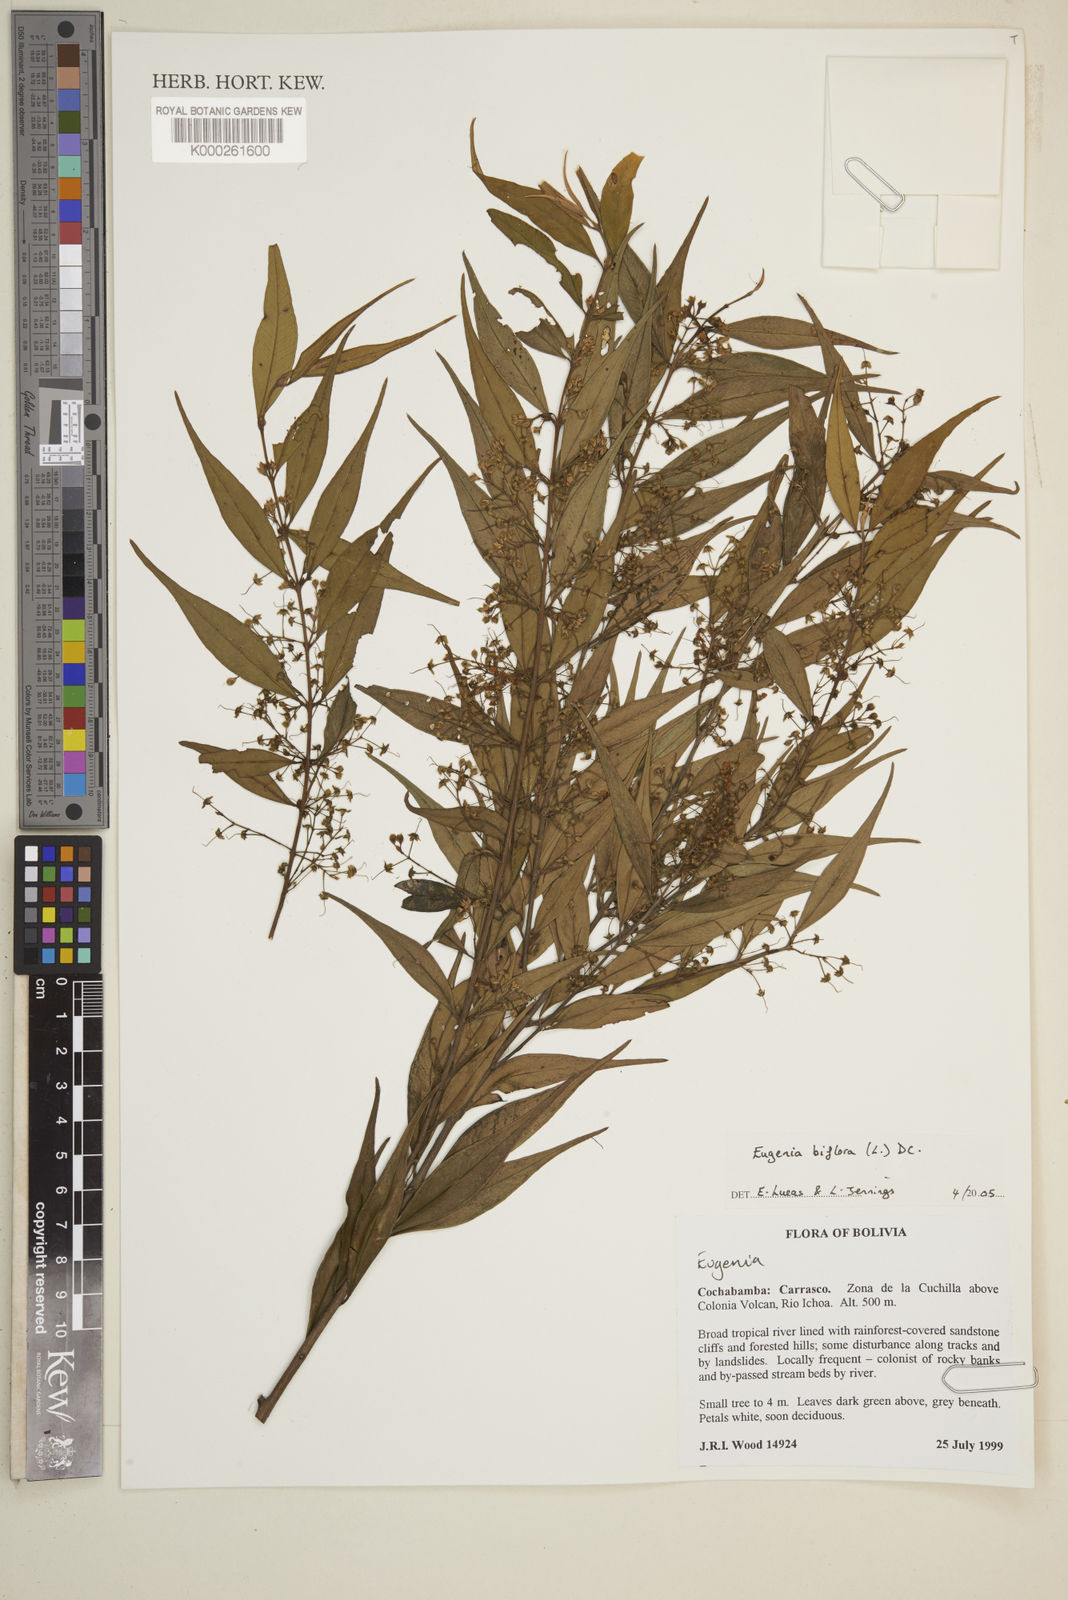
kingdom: Plantae
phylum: Tracheophyta
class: Magnoliopsida
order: Myrtales
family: Myrtaceae
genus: Eugenia
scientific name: Eugenia biflora
